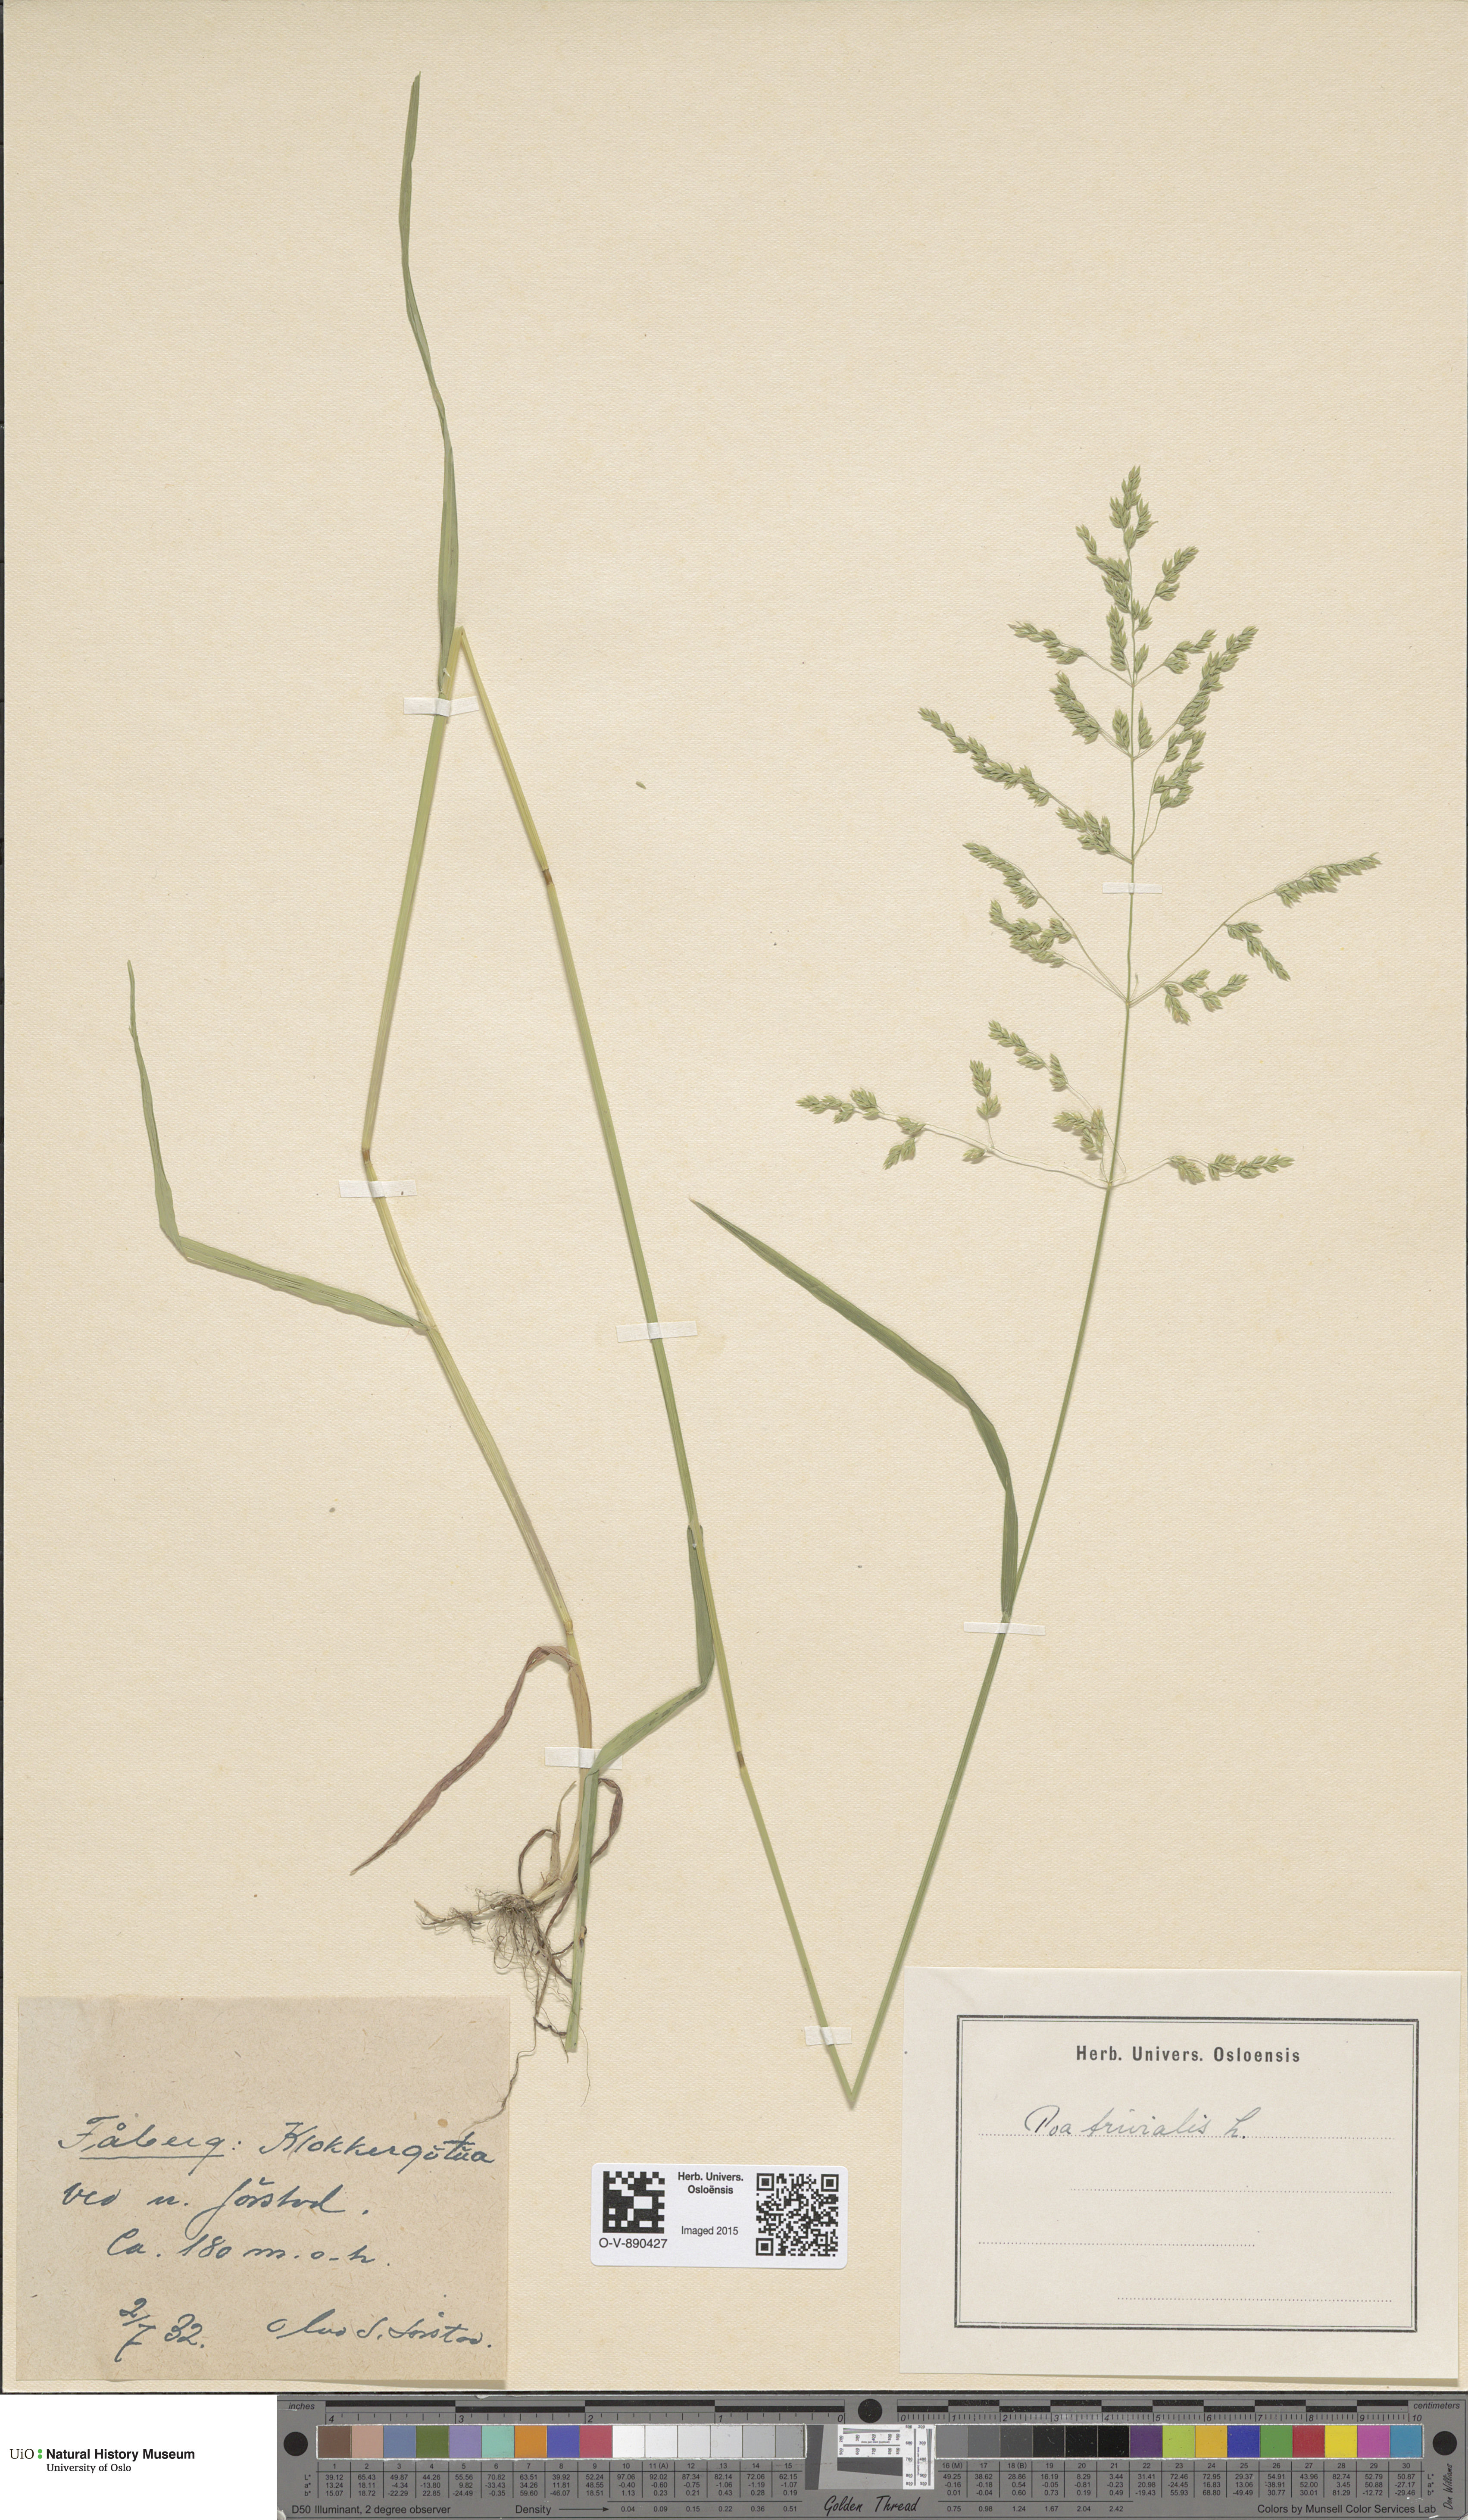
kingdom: Plantae
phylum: Tracheophyta
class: Liliopsida
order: Poales
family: Poaceae
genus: Poa
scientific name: Poa trivialis
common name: Rough bluegrass
